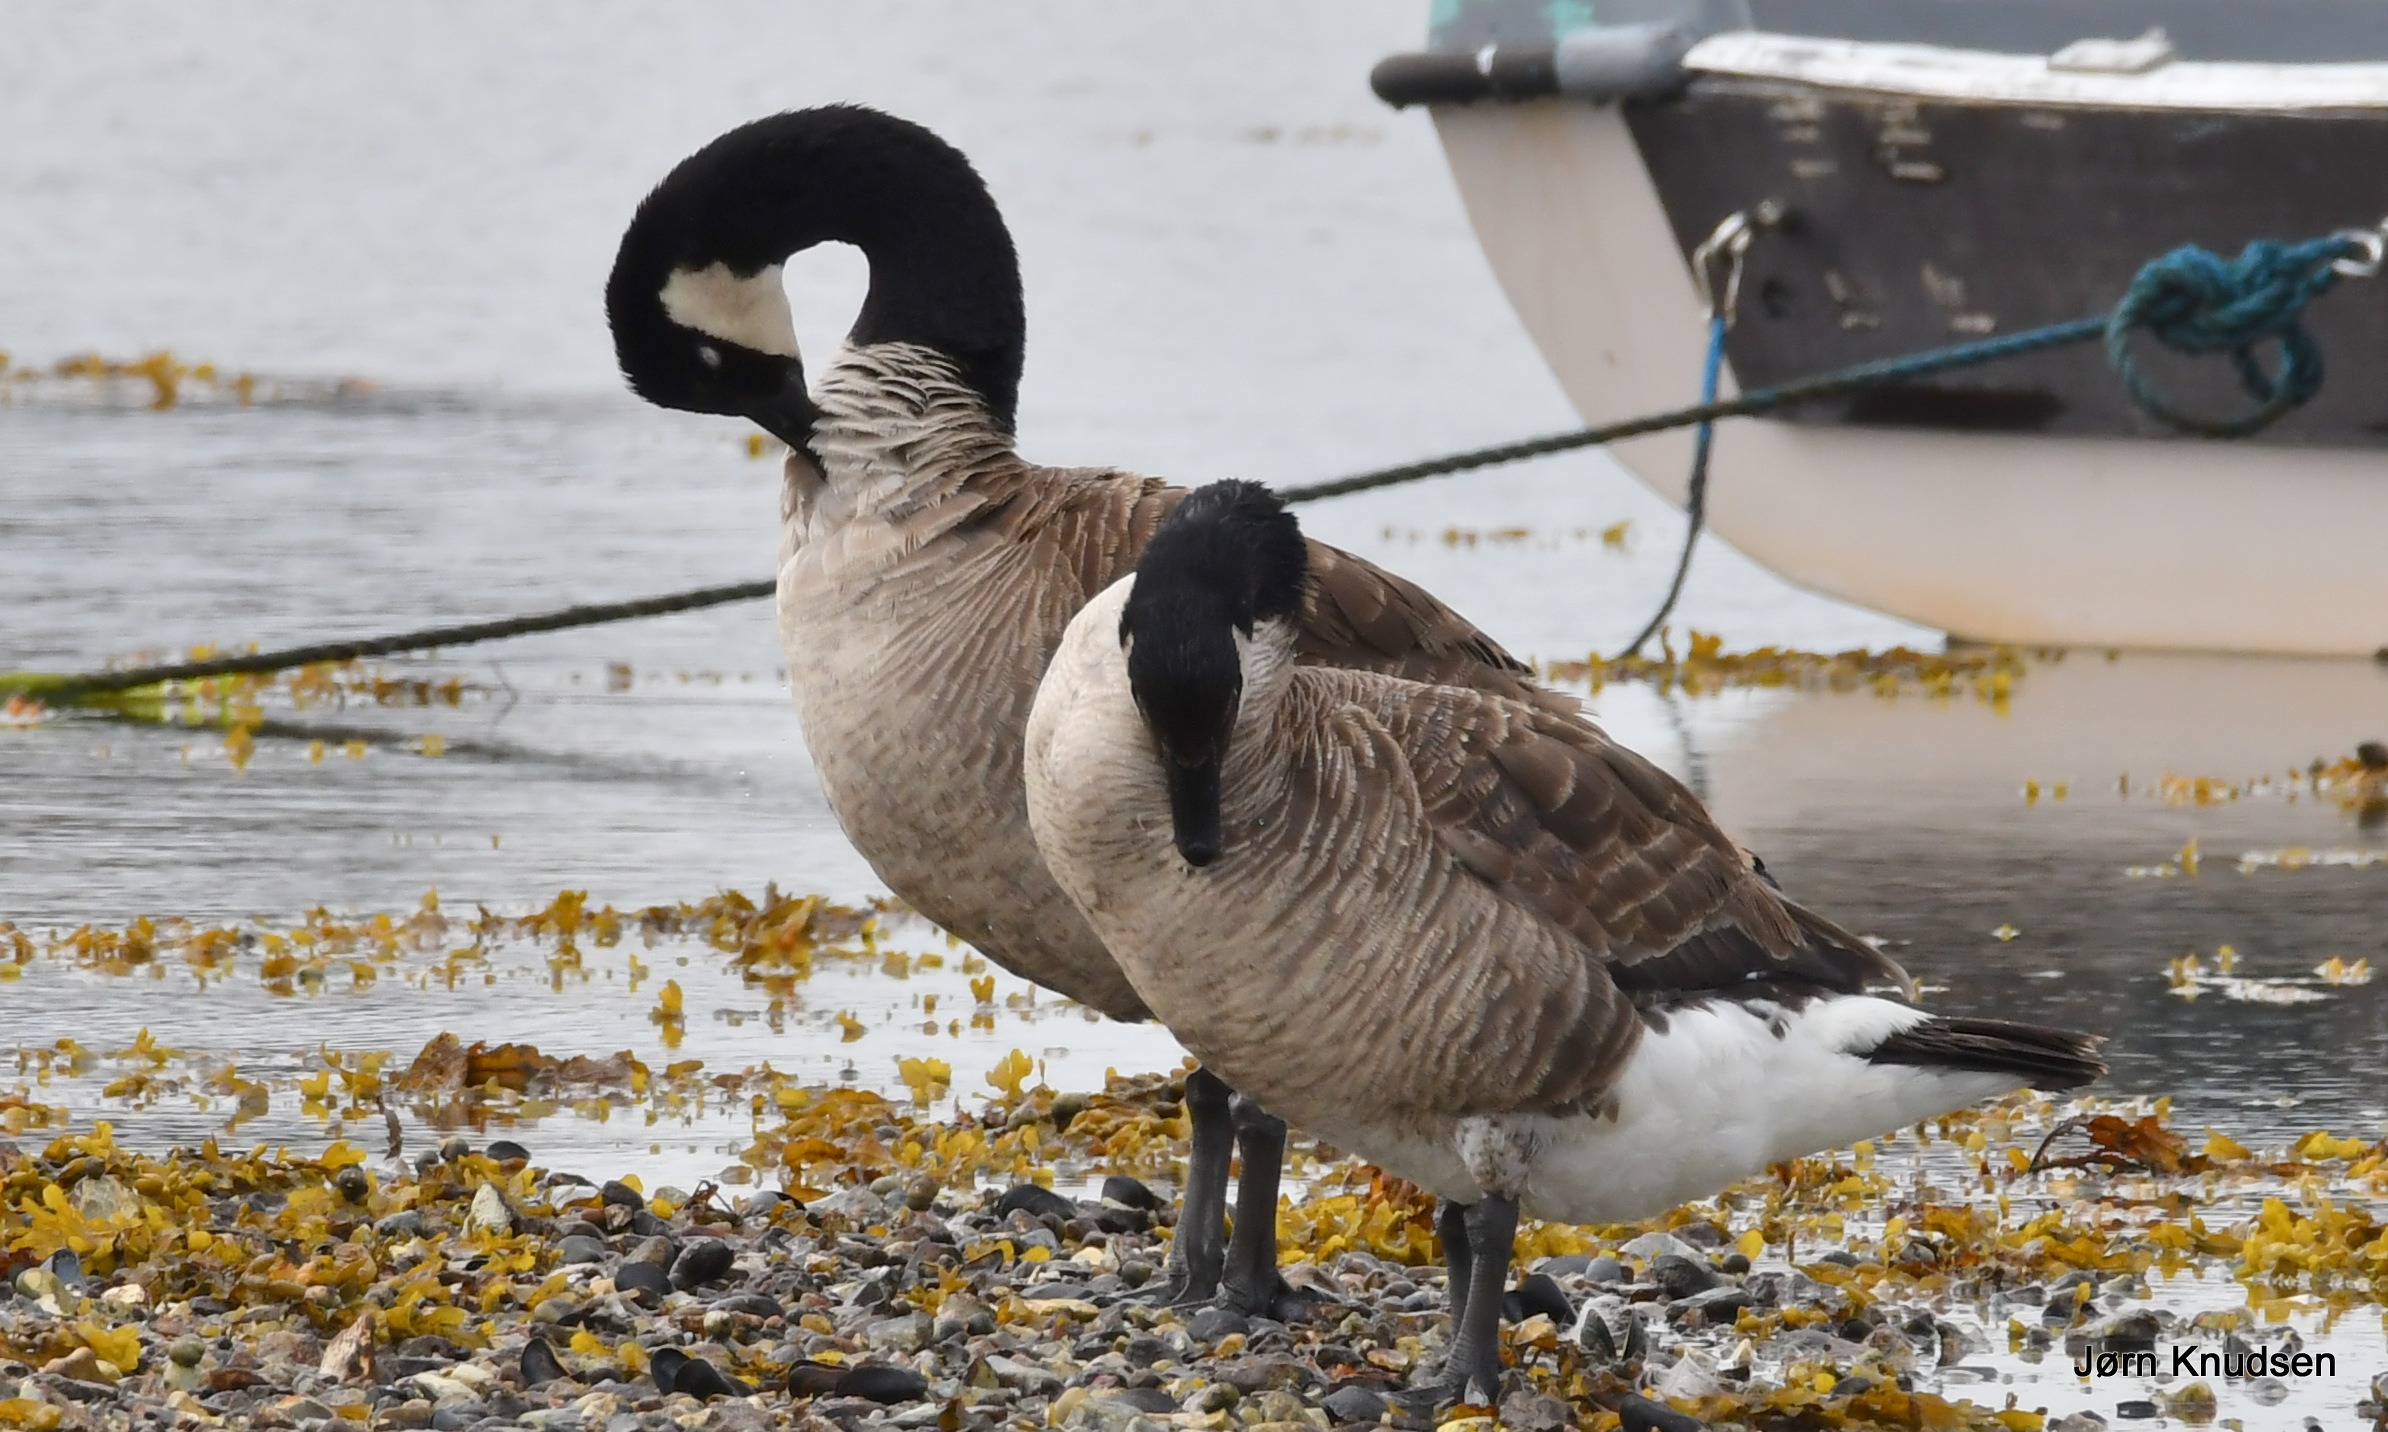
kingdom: Animalia
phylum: Chordata
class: Aves
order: Anseriformes
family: Anatidae
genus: Branta
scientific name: Branta canadensis
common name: Canadagås
